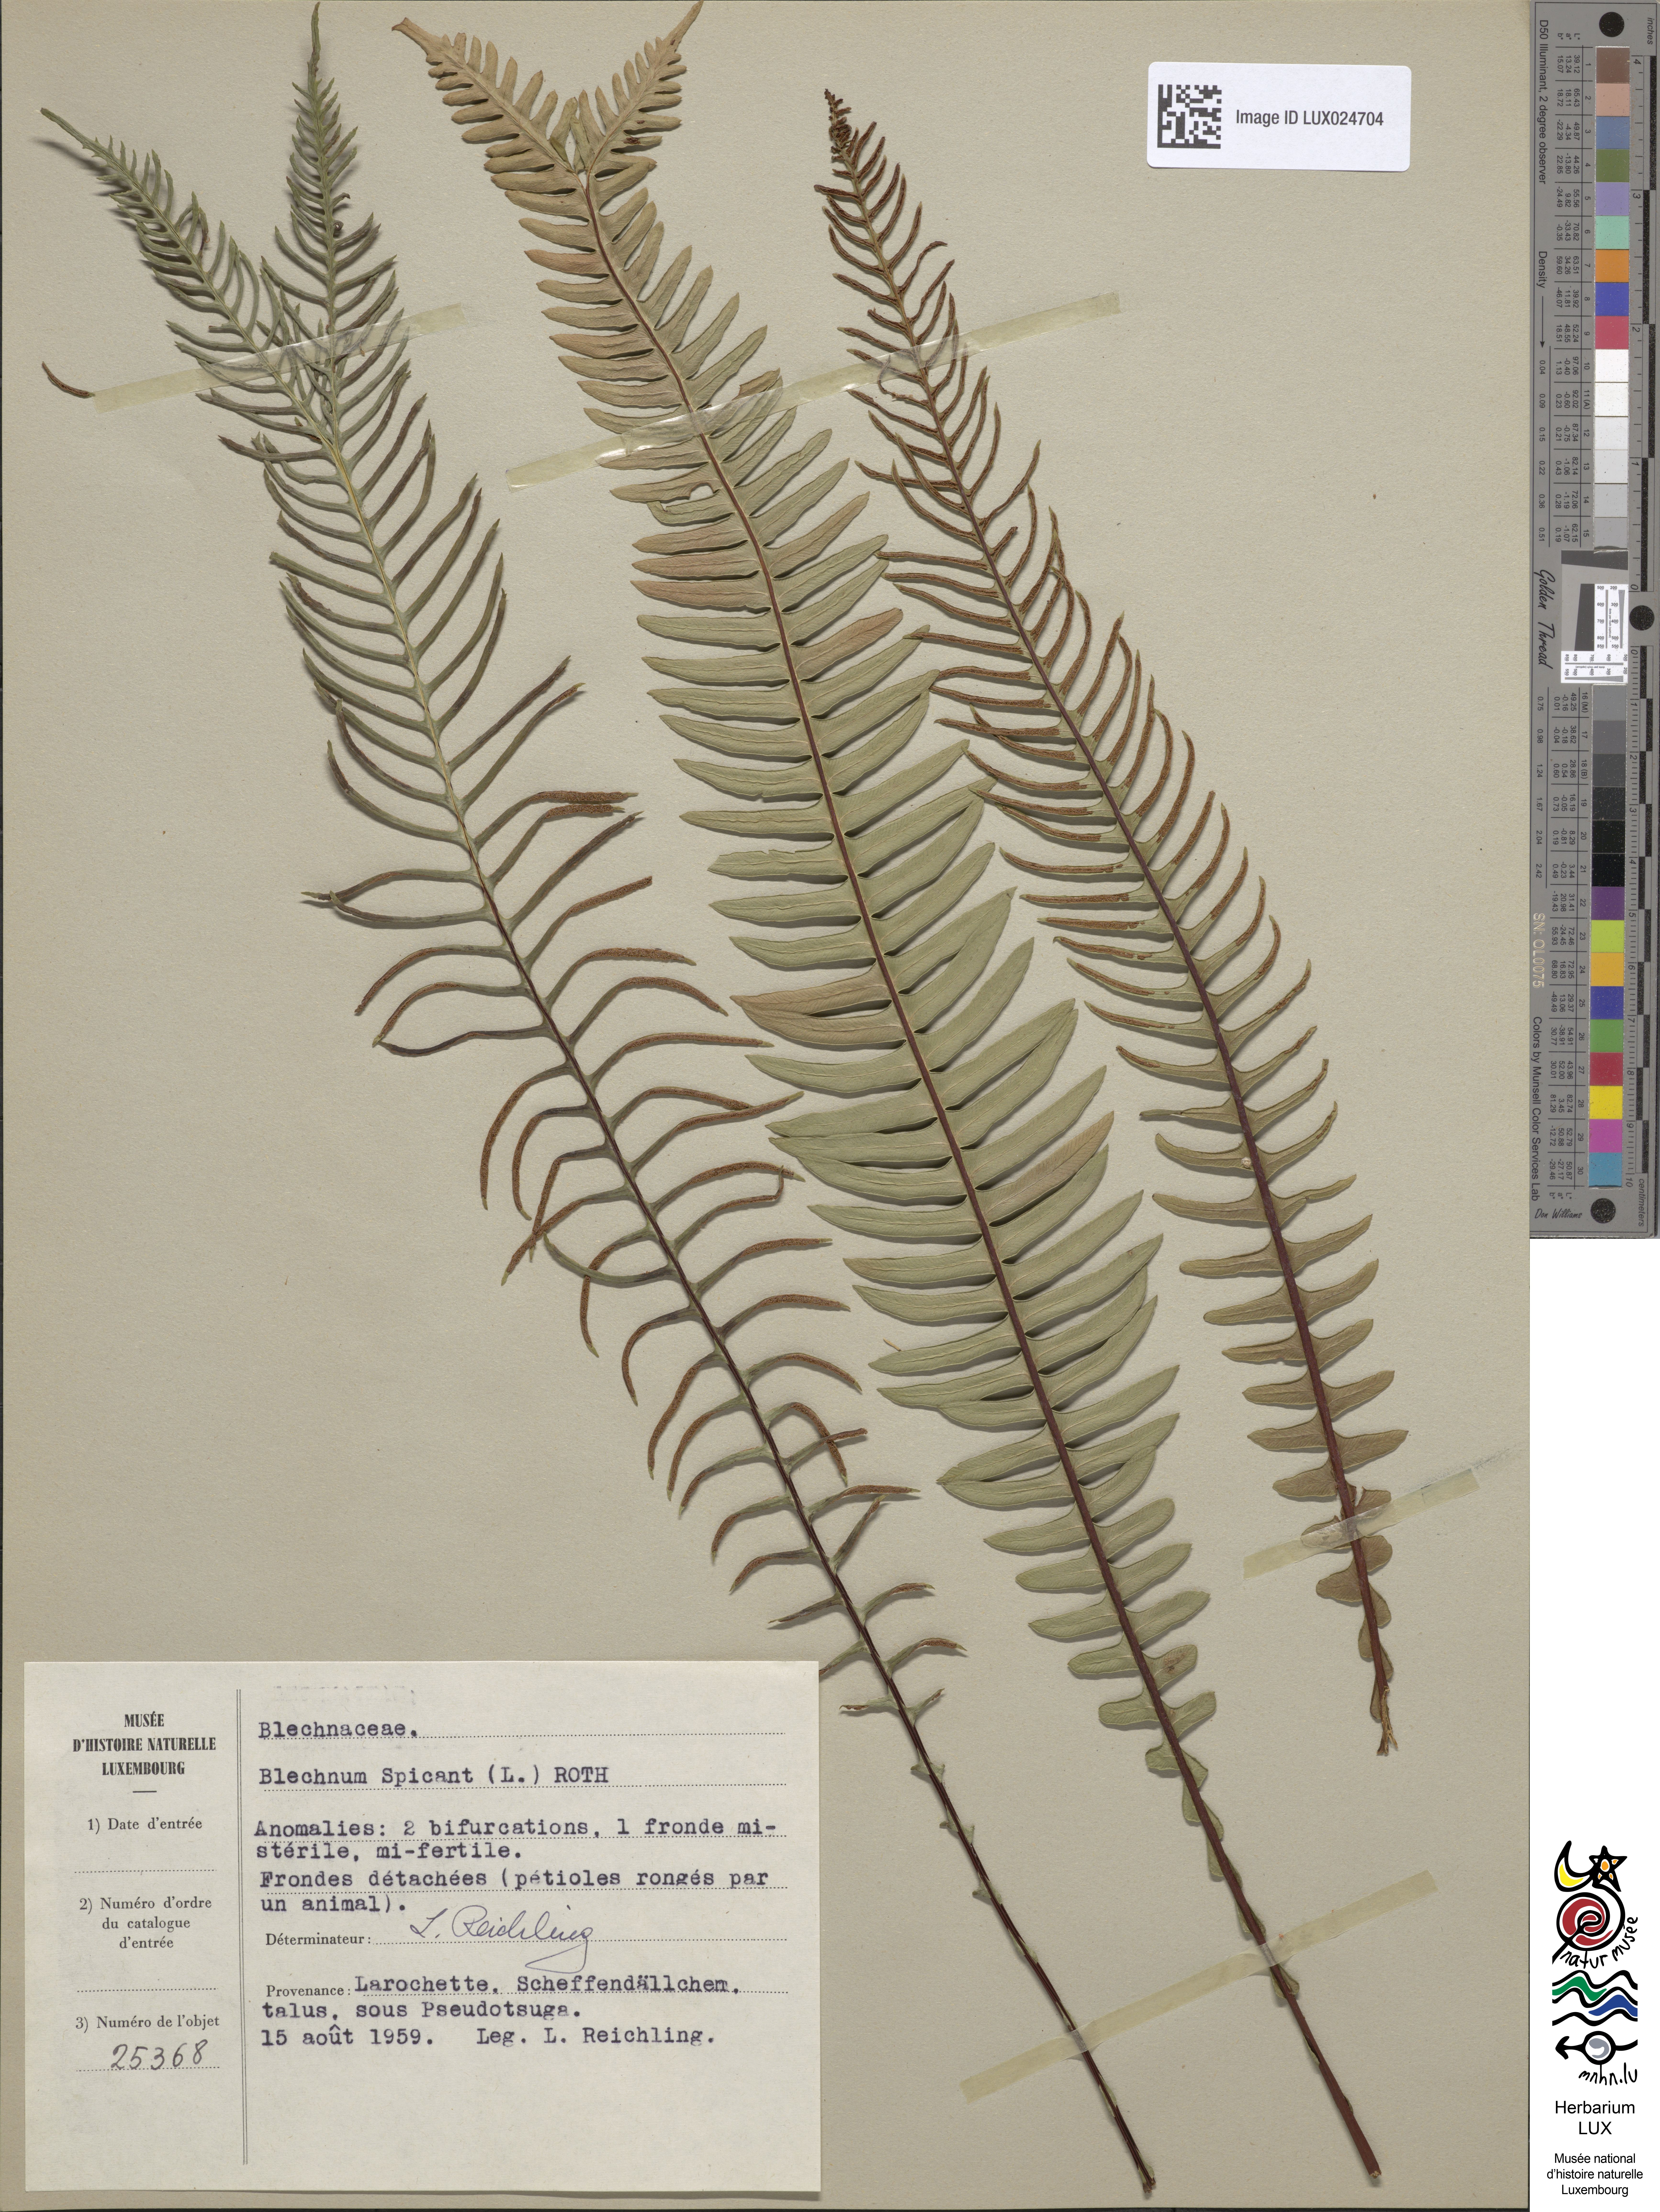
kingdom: Plantae
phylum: Tracheophyta
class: Polypodiopsida
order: Polypodiales
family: Blechnaceae
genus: Struthiopteris
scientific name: Struthiopteris spicant
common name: Deer fern
